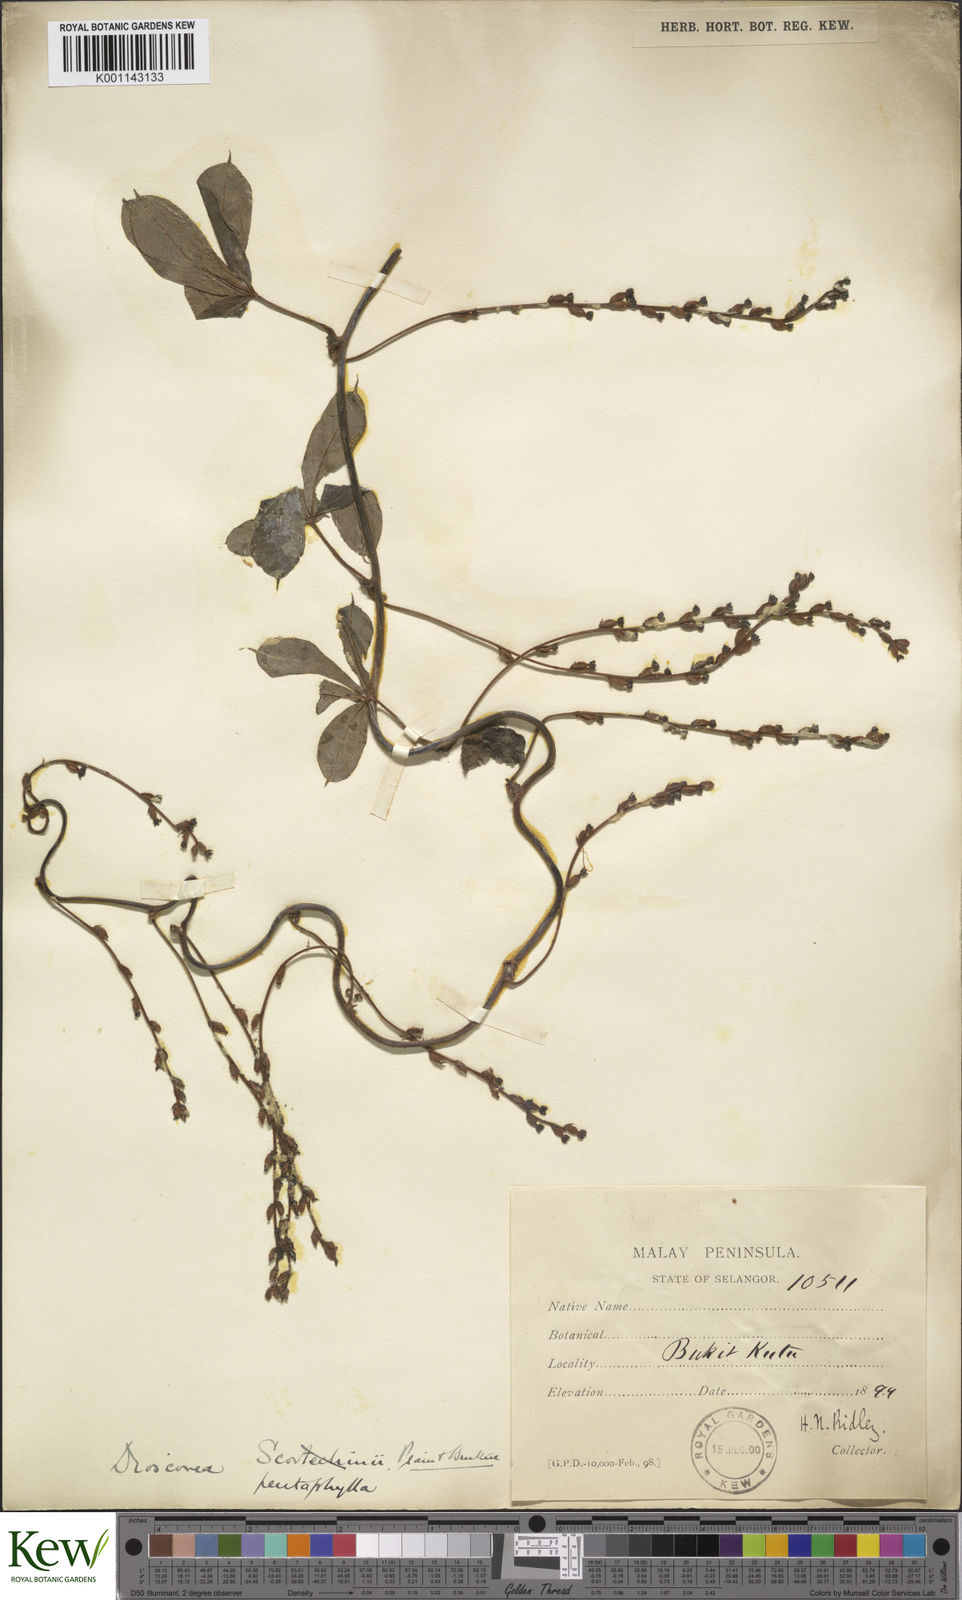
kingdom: Plantae
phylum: Tracheophyta
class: Liliopsida
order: Dioscoreales
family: Dioscoreaceae
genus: Dioscorea
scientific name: Dioscorea pentaphylla
